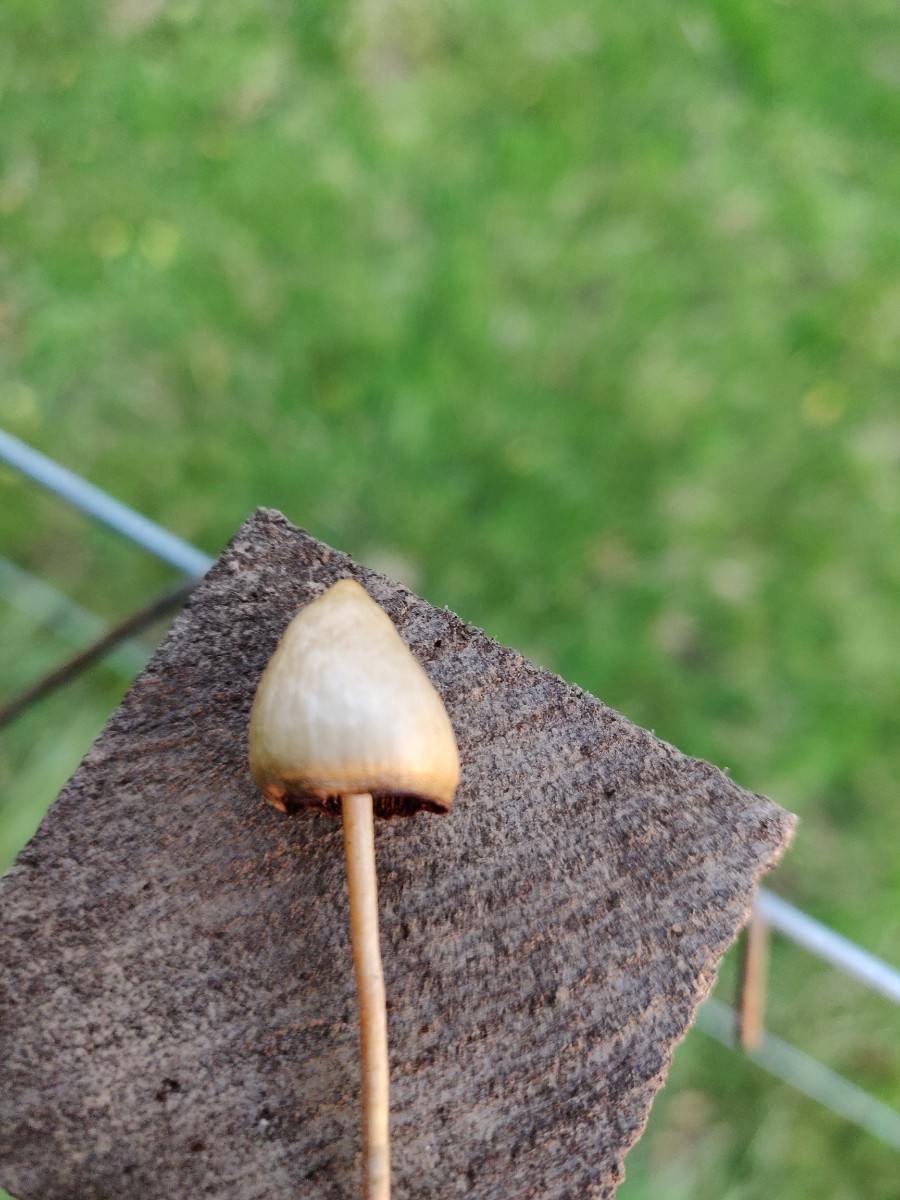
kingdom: Fungi
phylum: Basidiomycota
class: Agaricomycetes
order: Agaricales
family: Hymenogastraceae
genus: Psilocybe
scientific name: Psilocybe semilanceata
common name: spids nøgenhat
